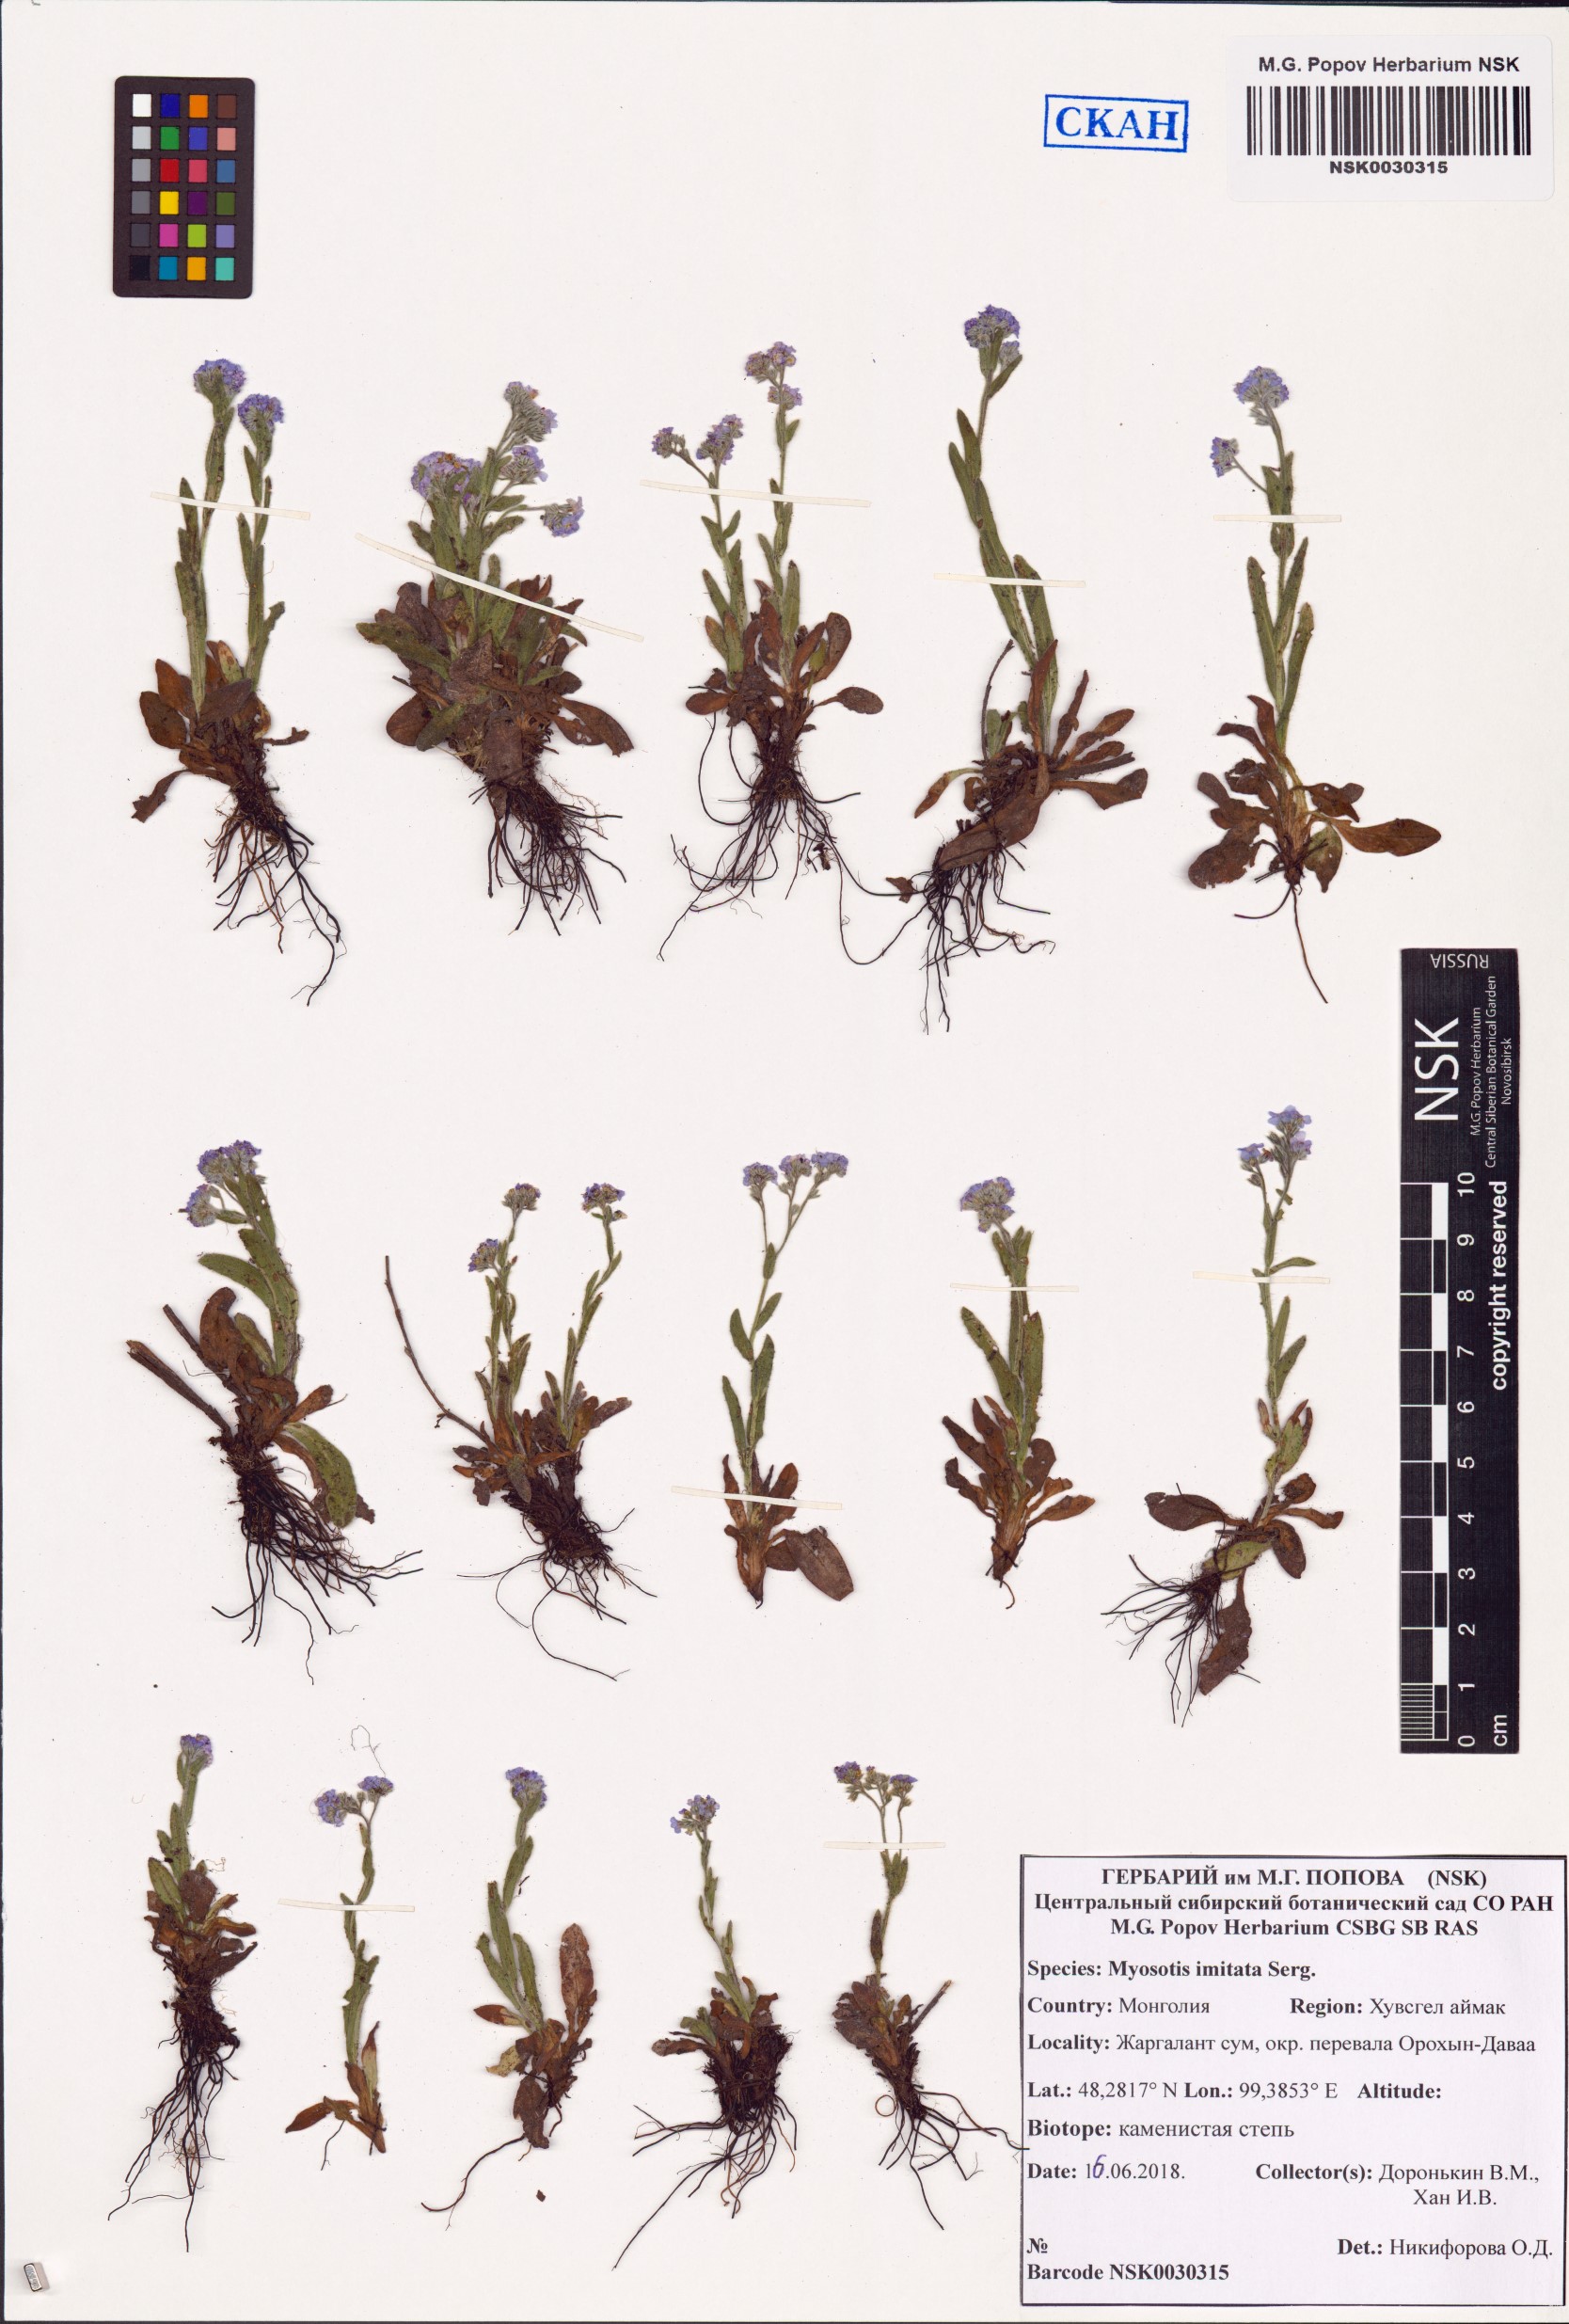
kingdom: Plantae
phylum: Tracheophyta
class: Magnoliopsida
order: Boraginales
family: Boraginaceae
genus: Myosotis
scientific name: Myosotis imitata
